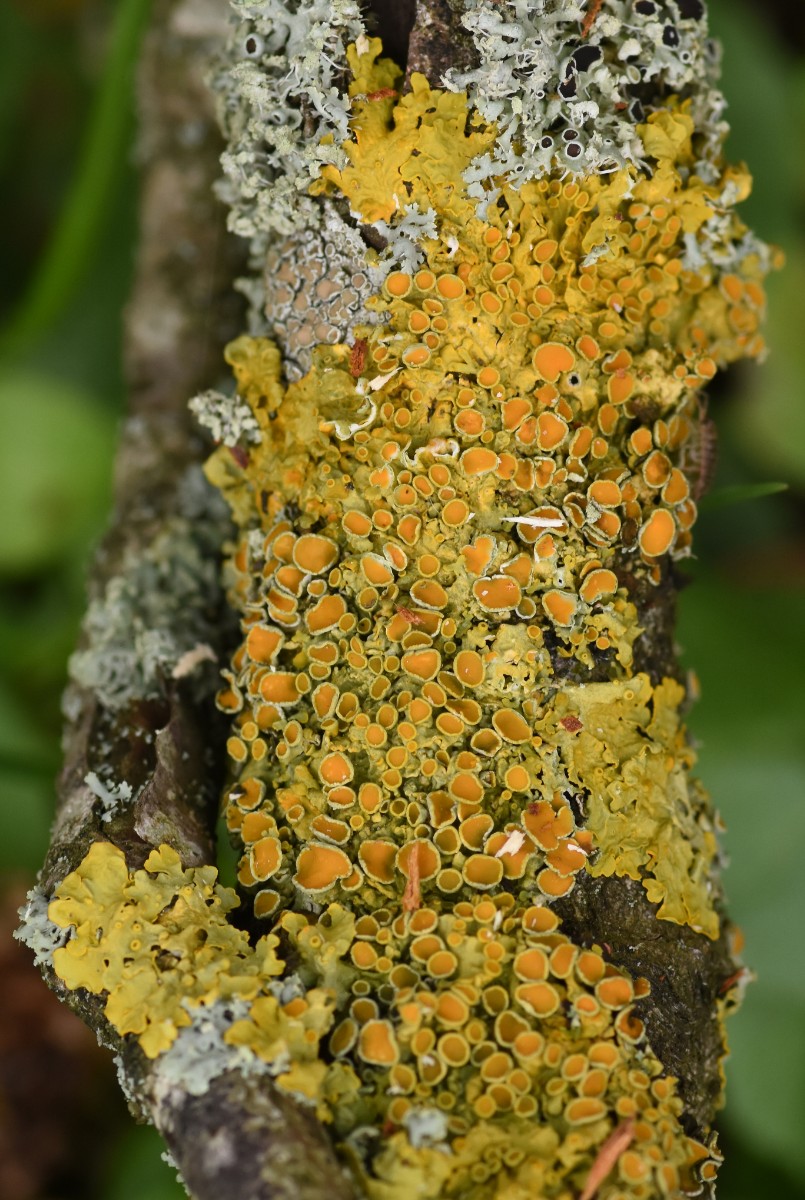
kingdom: Fungi
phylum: Ascomycota
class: Lecanoromycetes
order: Teloschistales
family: Teloschistaceae
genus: Xanthoria
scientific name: Xanthoria parietina
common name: almindelig væggelav
